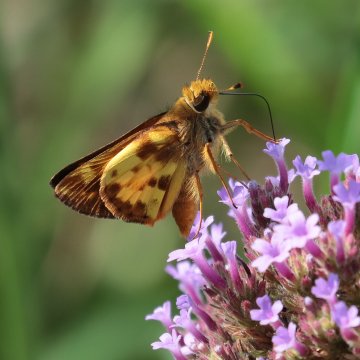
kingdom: Animalia
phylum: Arthropoda
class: Insecta
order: Lepidoptera
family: Hesperiidae
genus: Lon
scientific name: Lon zabulon
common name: Zabulon Skipper
